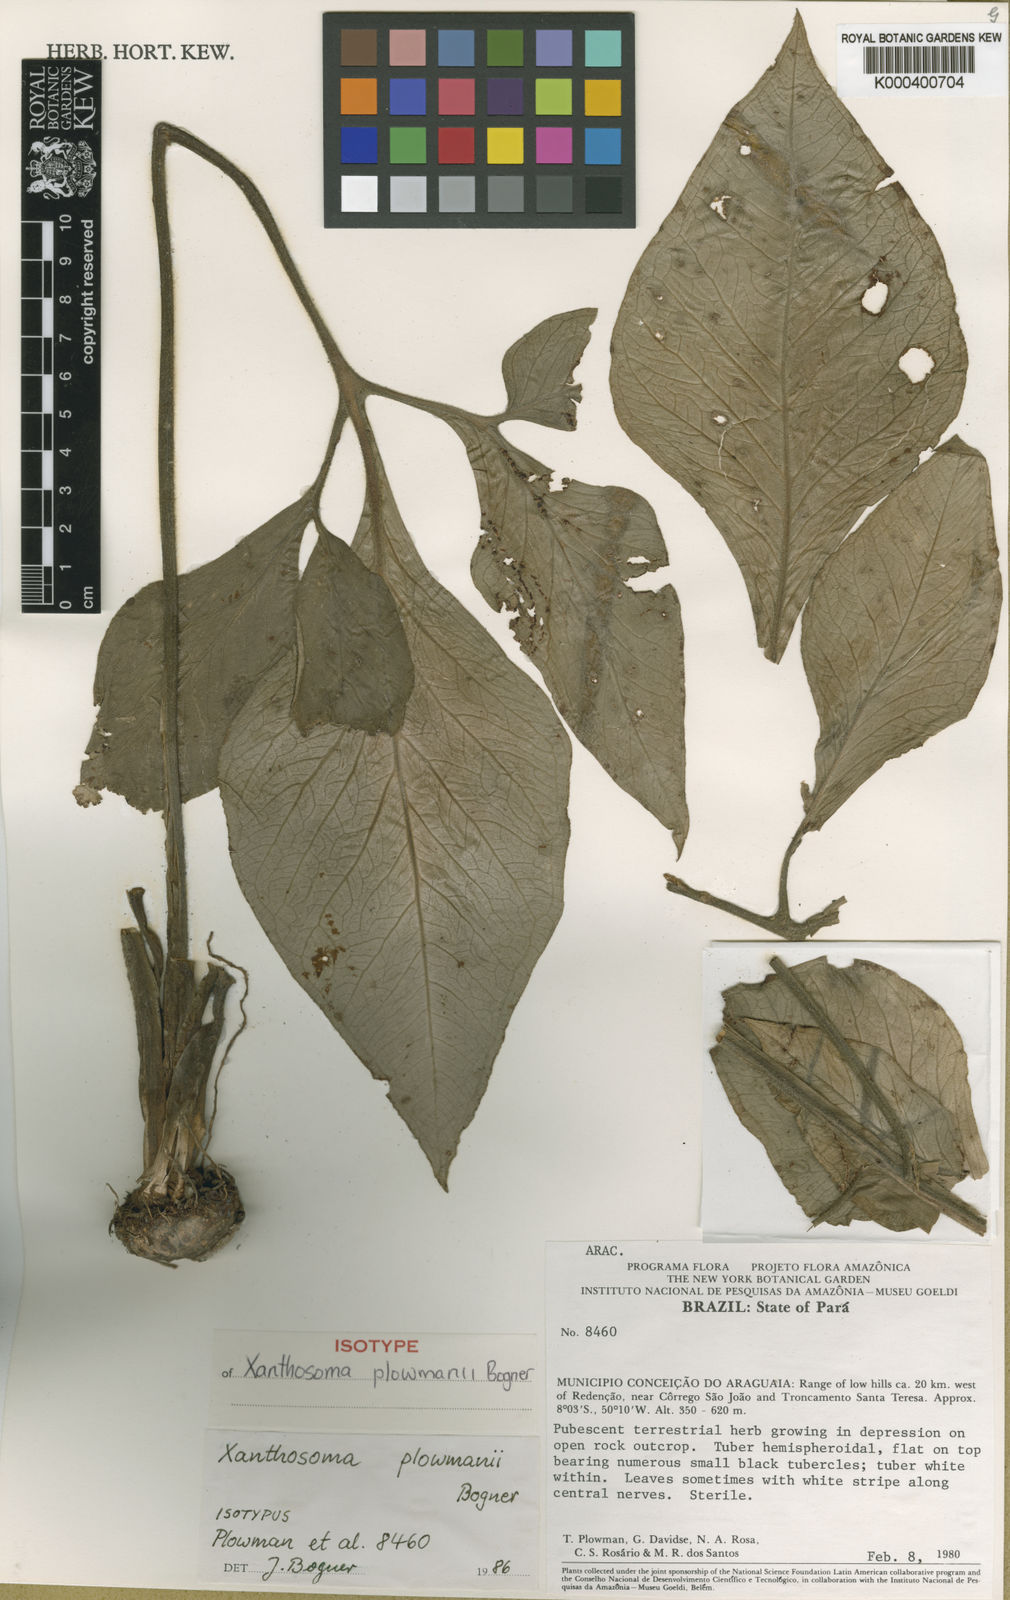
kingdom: Plantae
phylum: Tracheophyta
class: Liliopsida
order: Alismatales
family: Araceae
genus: Xanthosoma
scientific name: Xanthosoma plowmanii
